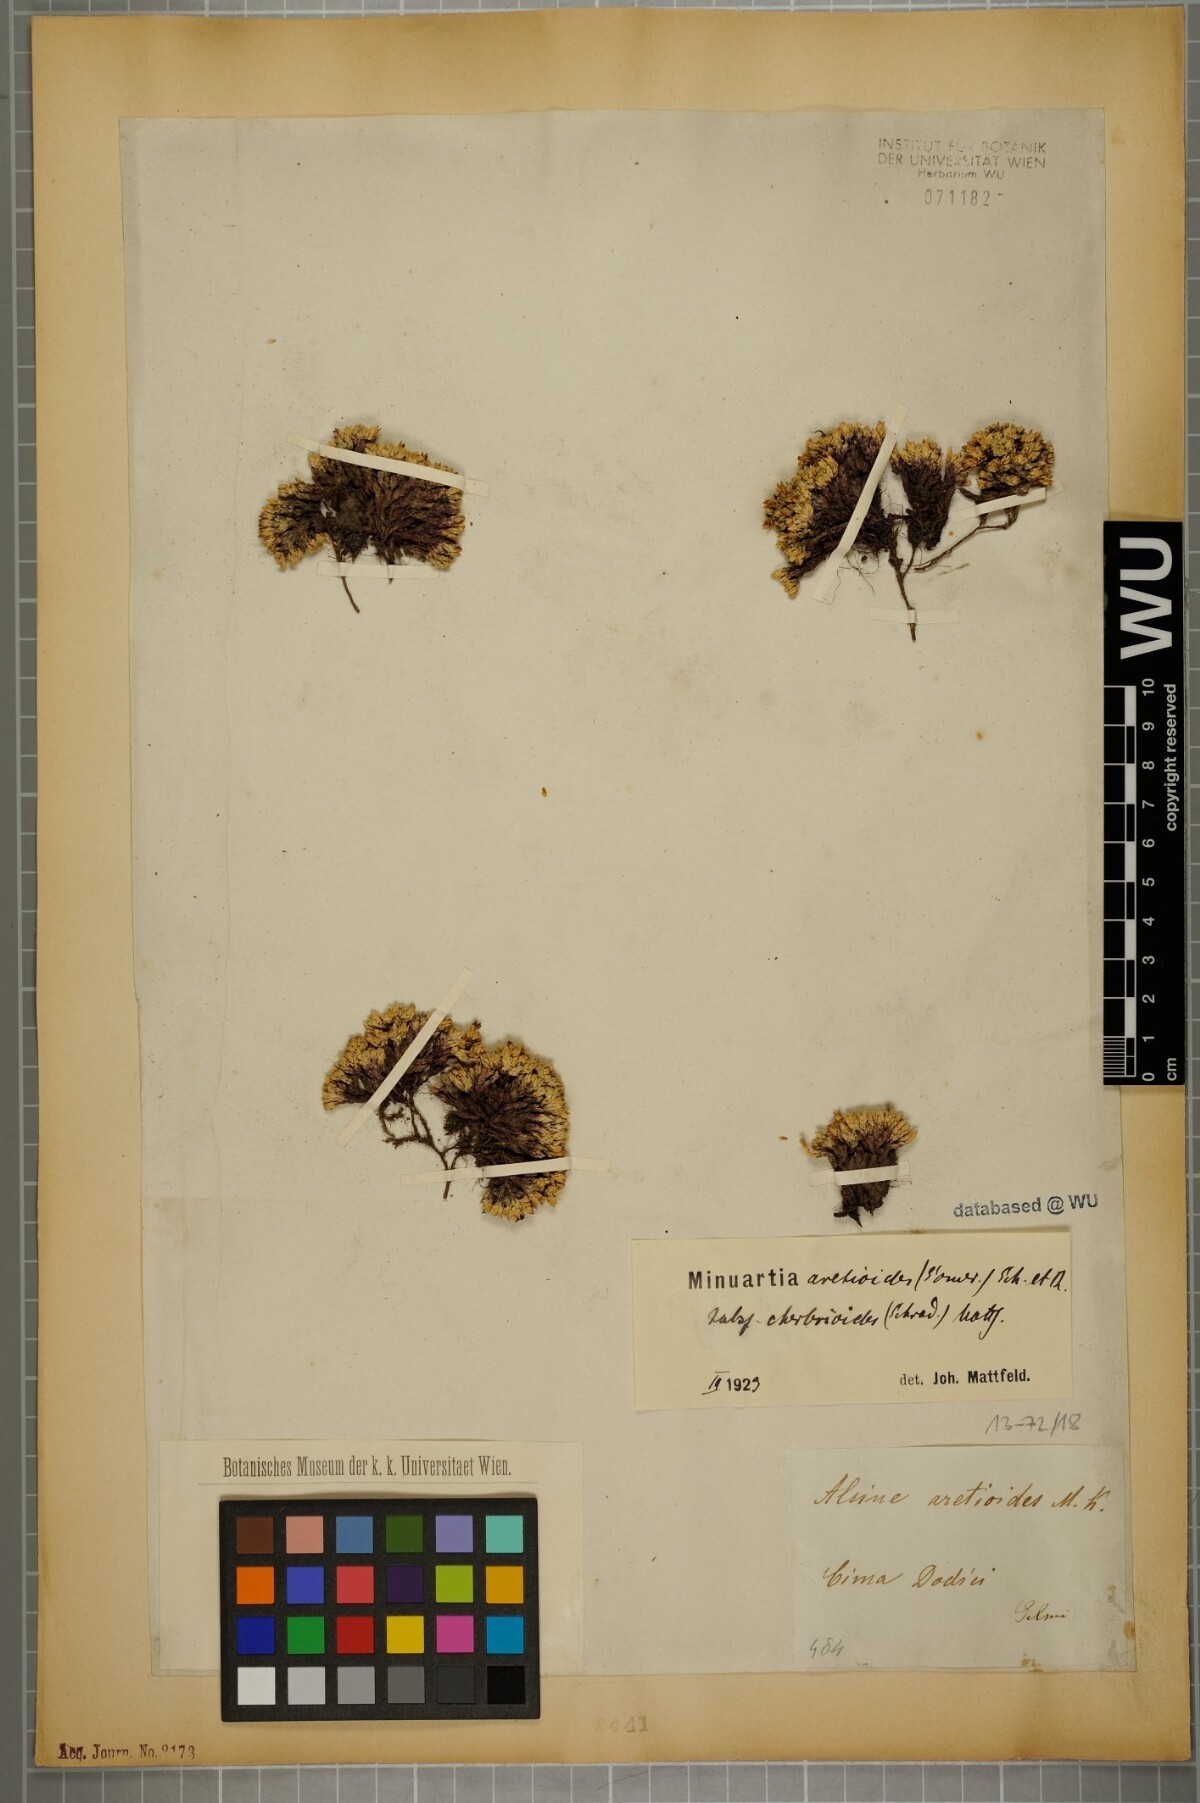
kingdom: Plantae
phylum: Tracheophyta
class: Magnoliopsida
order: Caryophyllales
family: Caryophyllaceae
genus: Facchinia
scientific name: Facchinia cherlerioides
